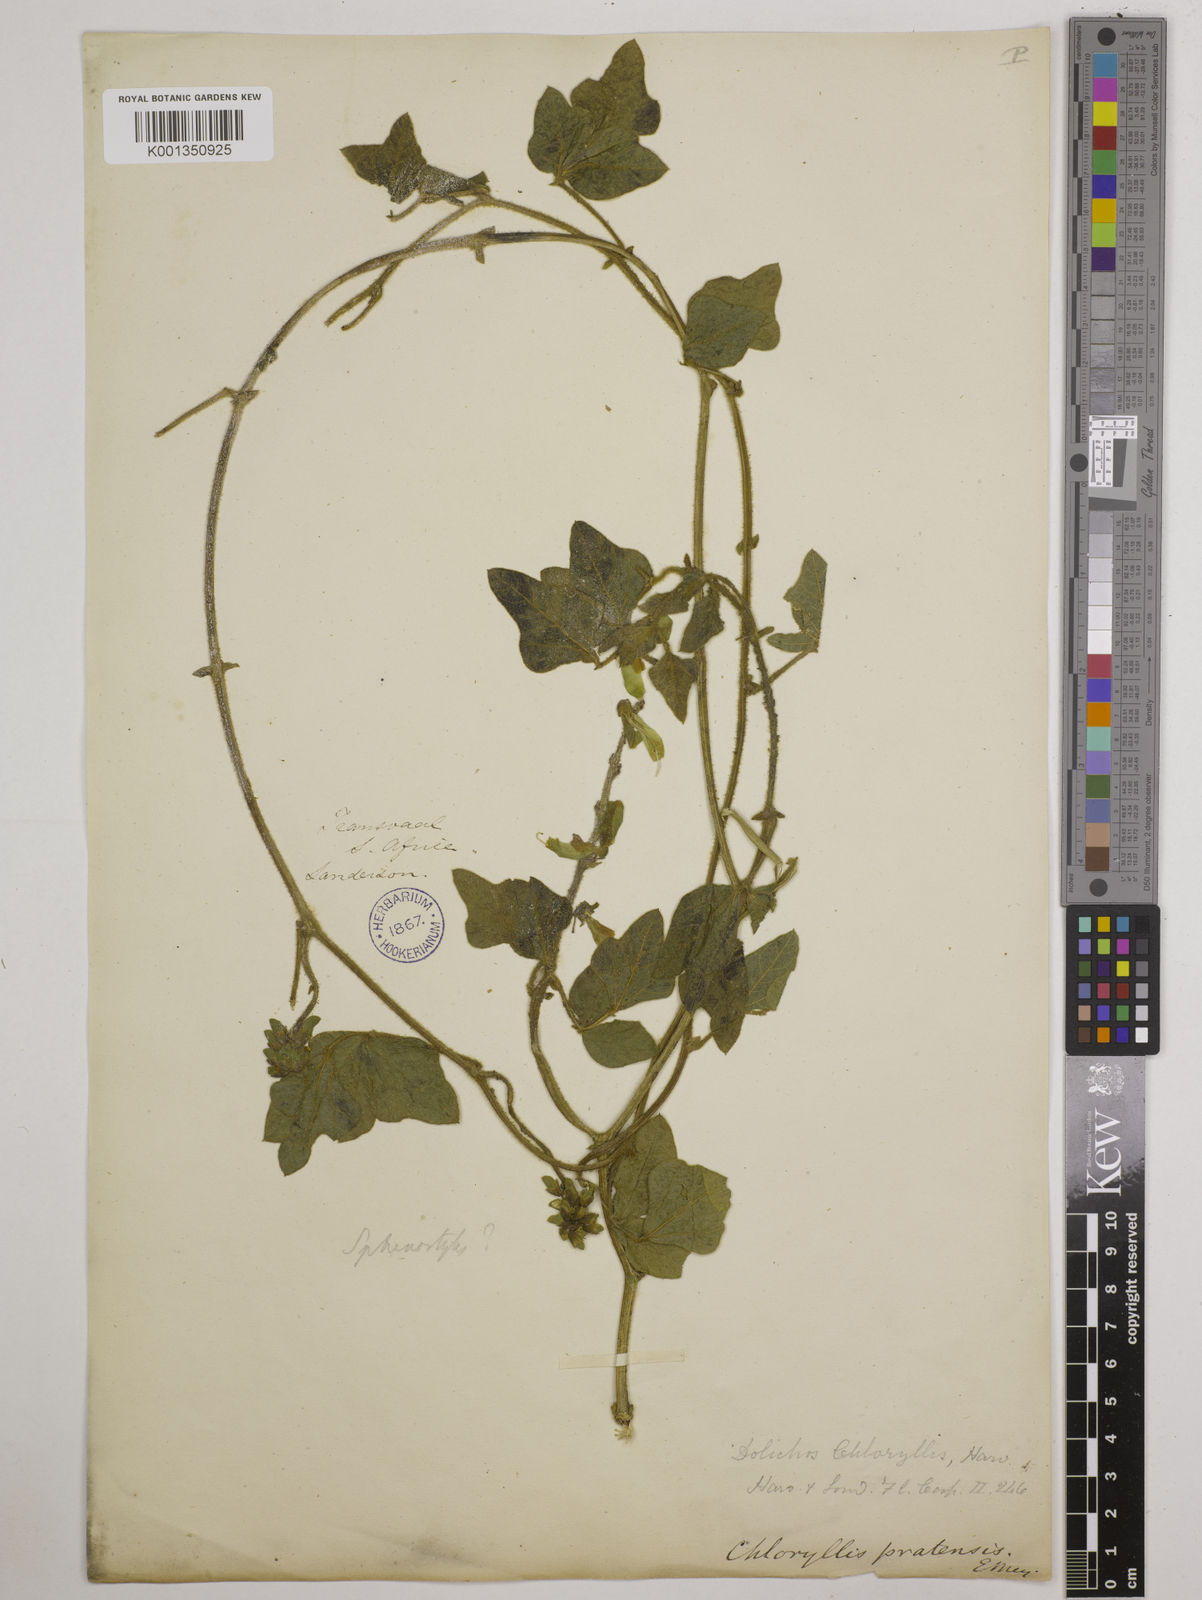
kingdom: Plantae
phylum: Tracheophyta
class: Magnoliopsida
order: Fabales
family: Fabaceae
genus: Dolichos
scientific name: Dolichos pratensis
